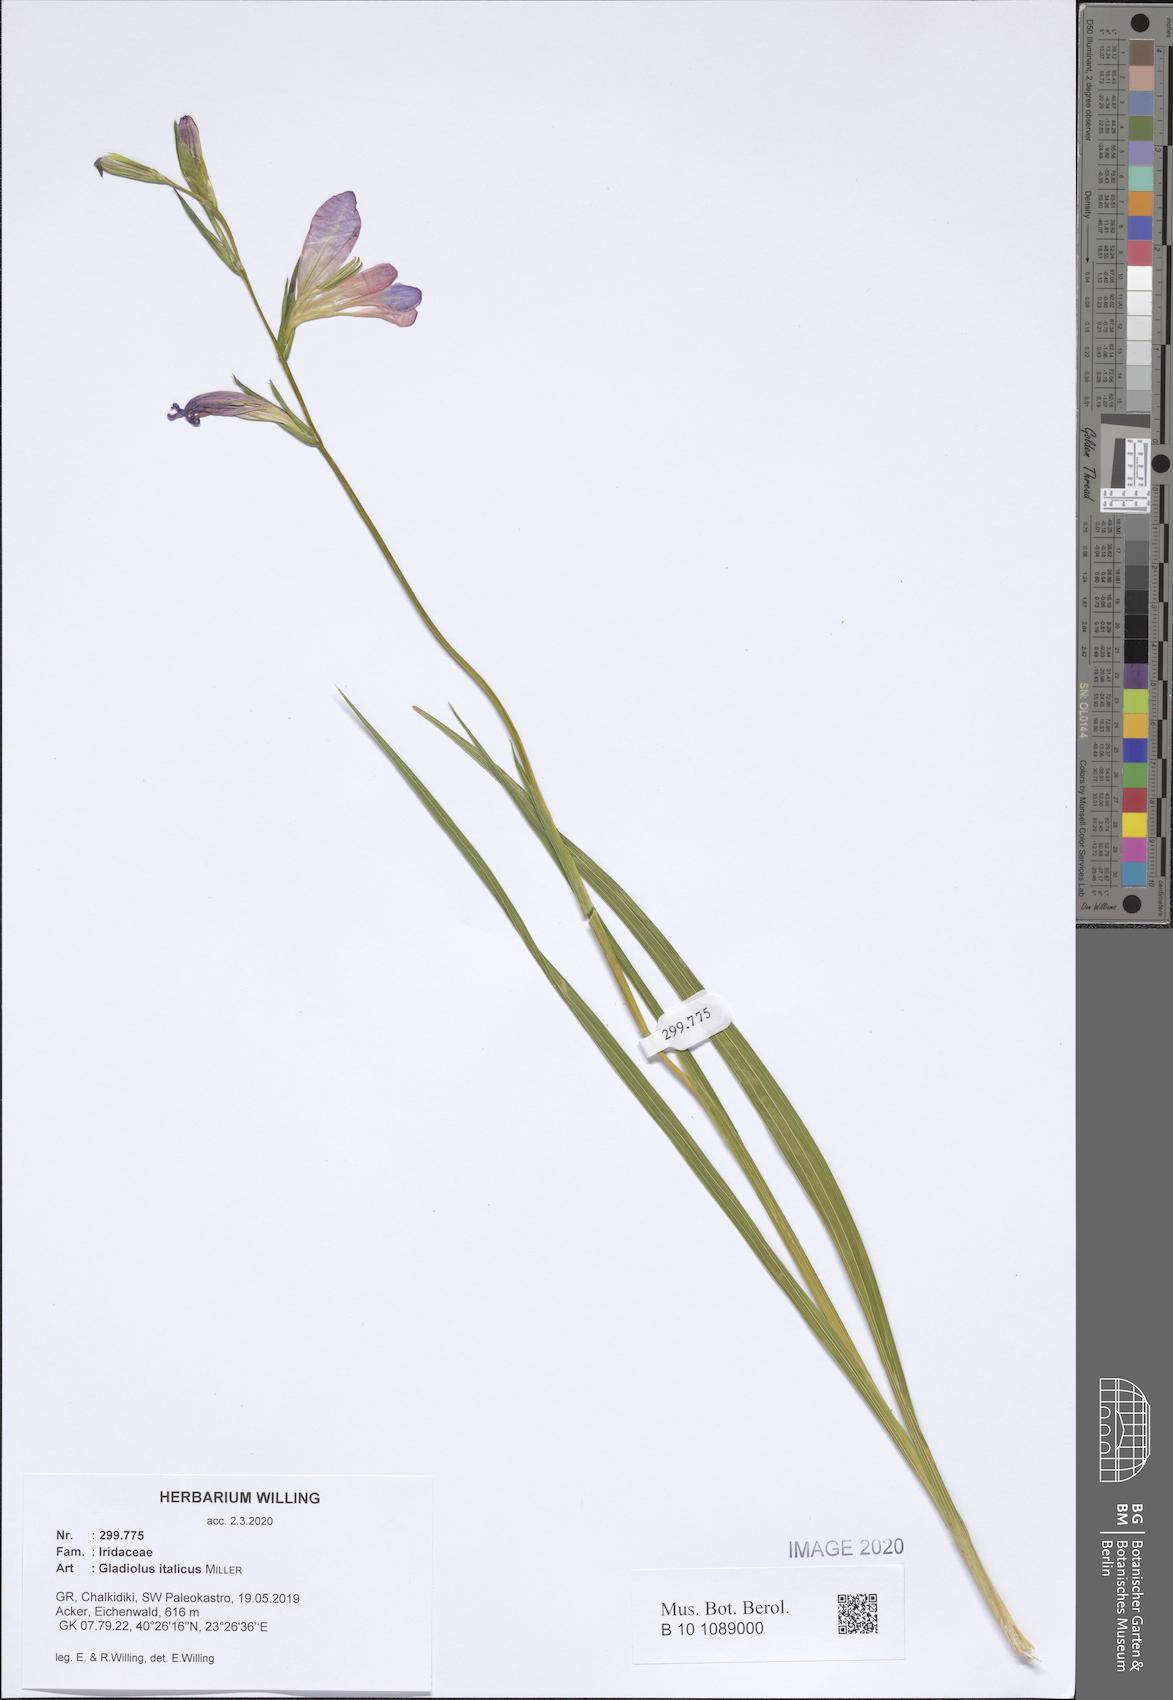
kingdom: Plantae
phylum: Tracheophyta
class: Liliopsida
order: Asparagales
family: Iridaceae
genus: Gladiolus
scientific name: Gladiolus italicus
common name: Field gladiolus
